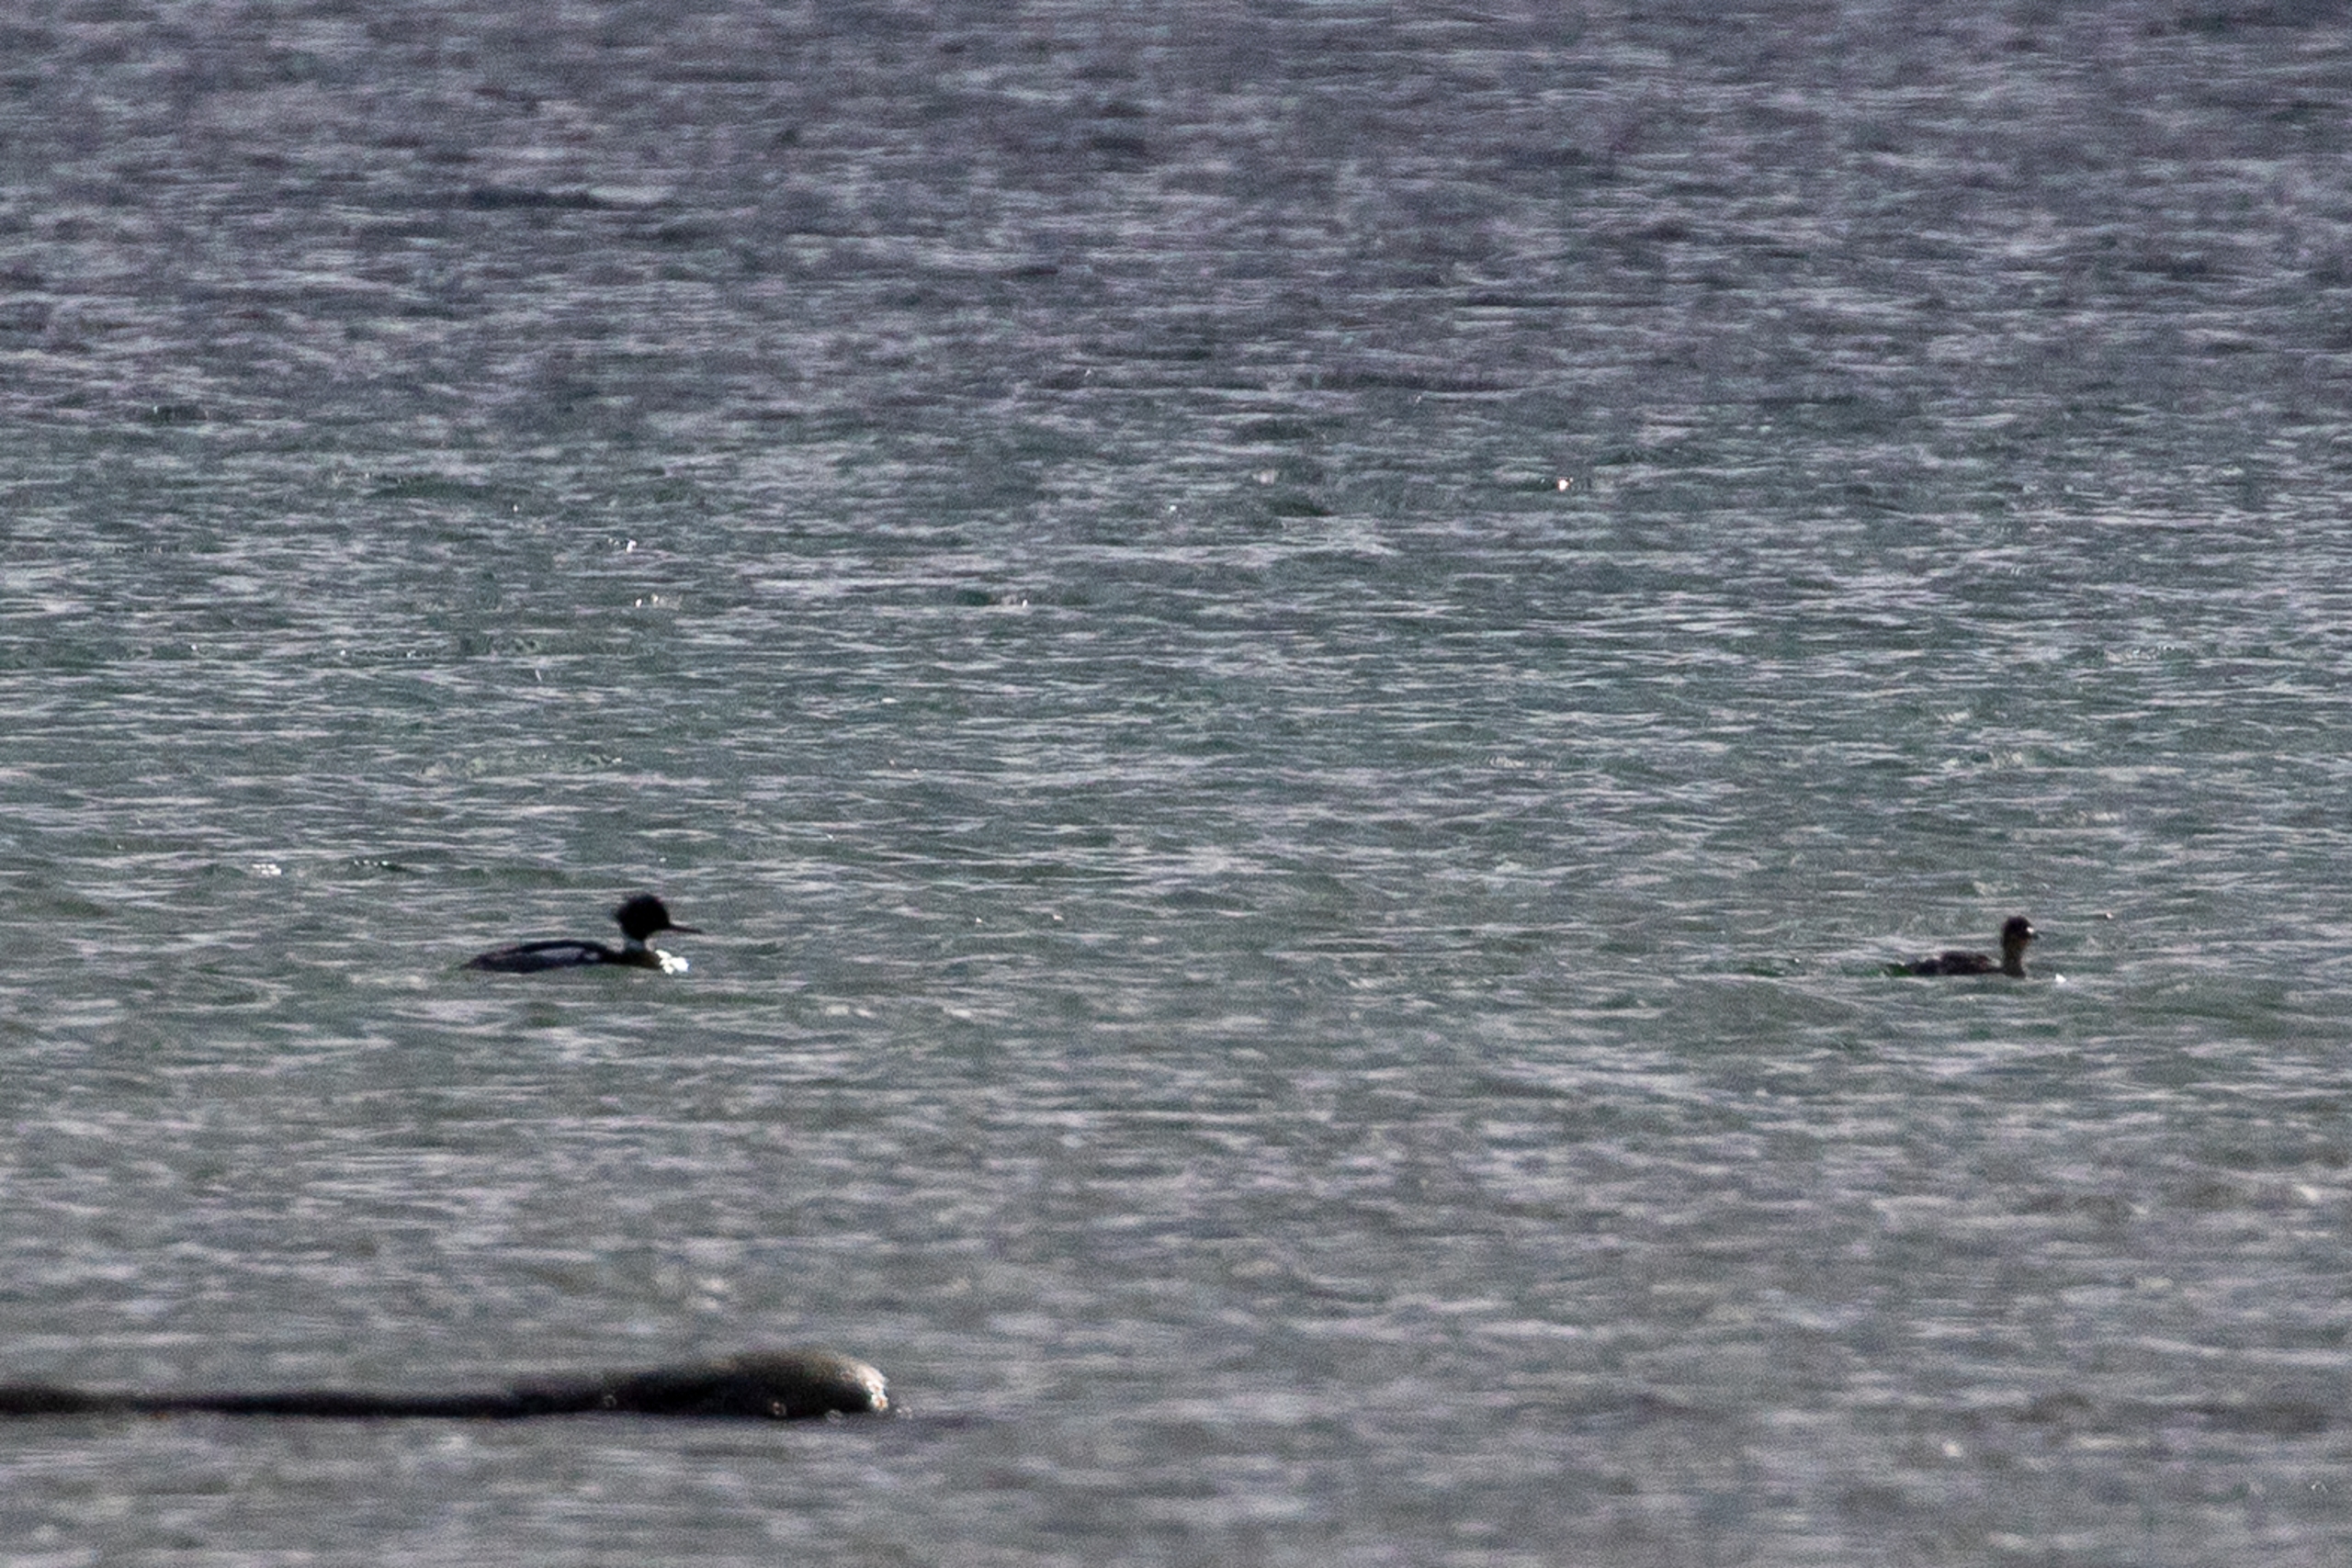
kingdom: Animalia
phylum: Chordata
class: Aves
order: Anseriformes
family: Anatidae
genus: Mergus
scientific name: Mergus serrator
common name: Toppet skallesluger
